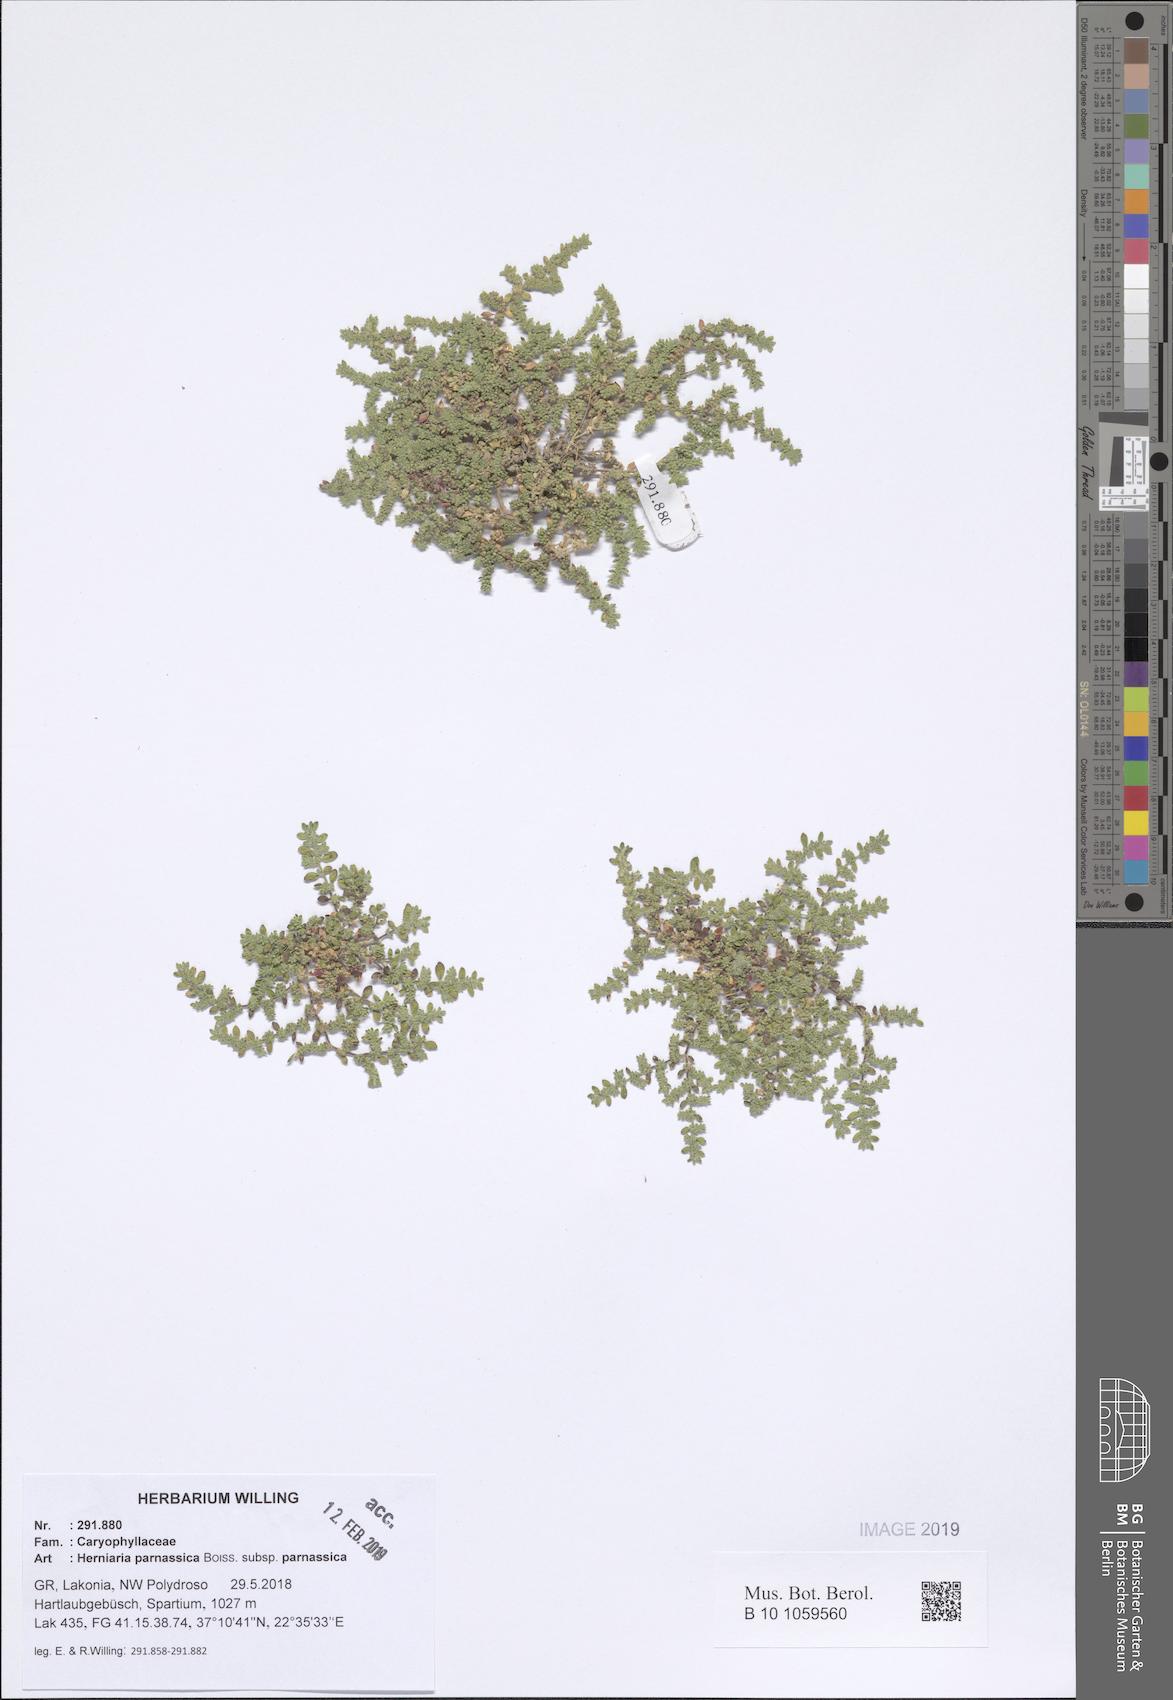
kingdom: Plantae
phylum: Tracheophyta
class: Magnoliopsida
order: Caryophyllales
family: Caryophyllaceae
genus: Herniaria
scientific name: Herniaria parnassica
